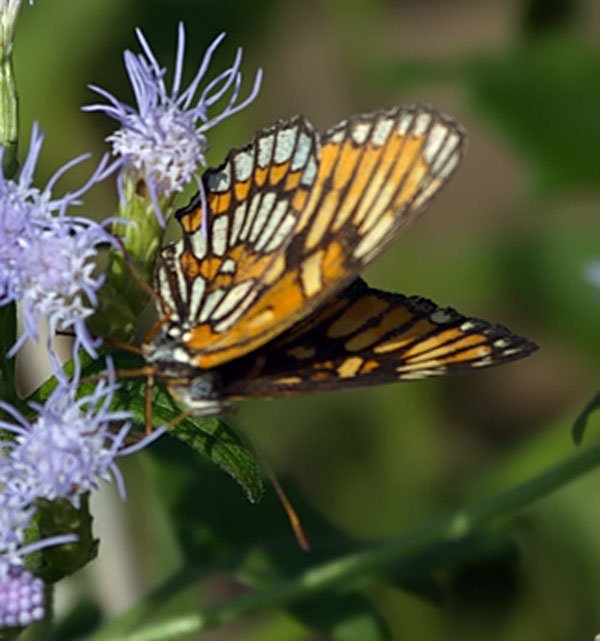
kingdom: Animalia
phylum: Arthropoda
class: Insecta
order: Lepidoptera
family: Nymphalidae
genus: Texola
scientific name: Texola elada
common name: Elada Checkerspot
